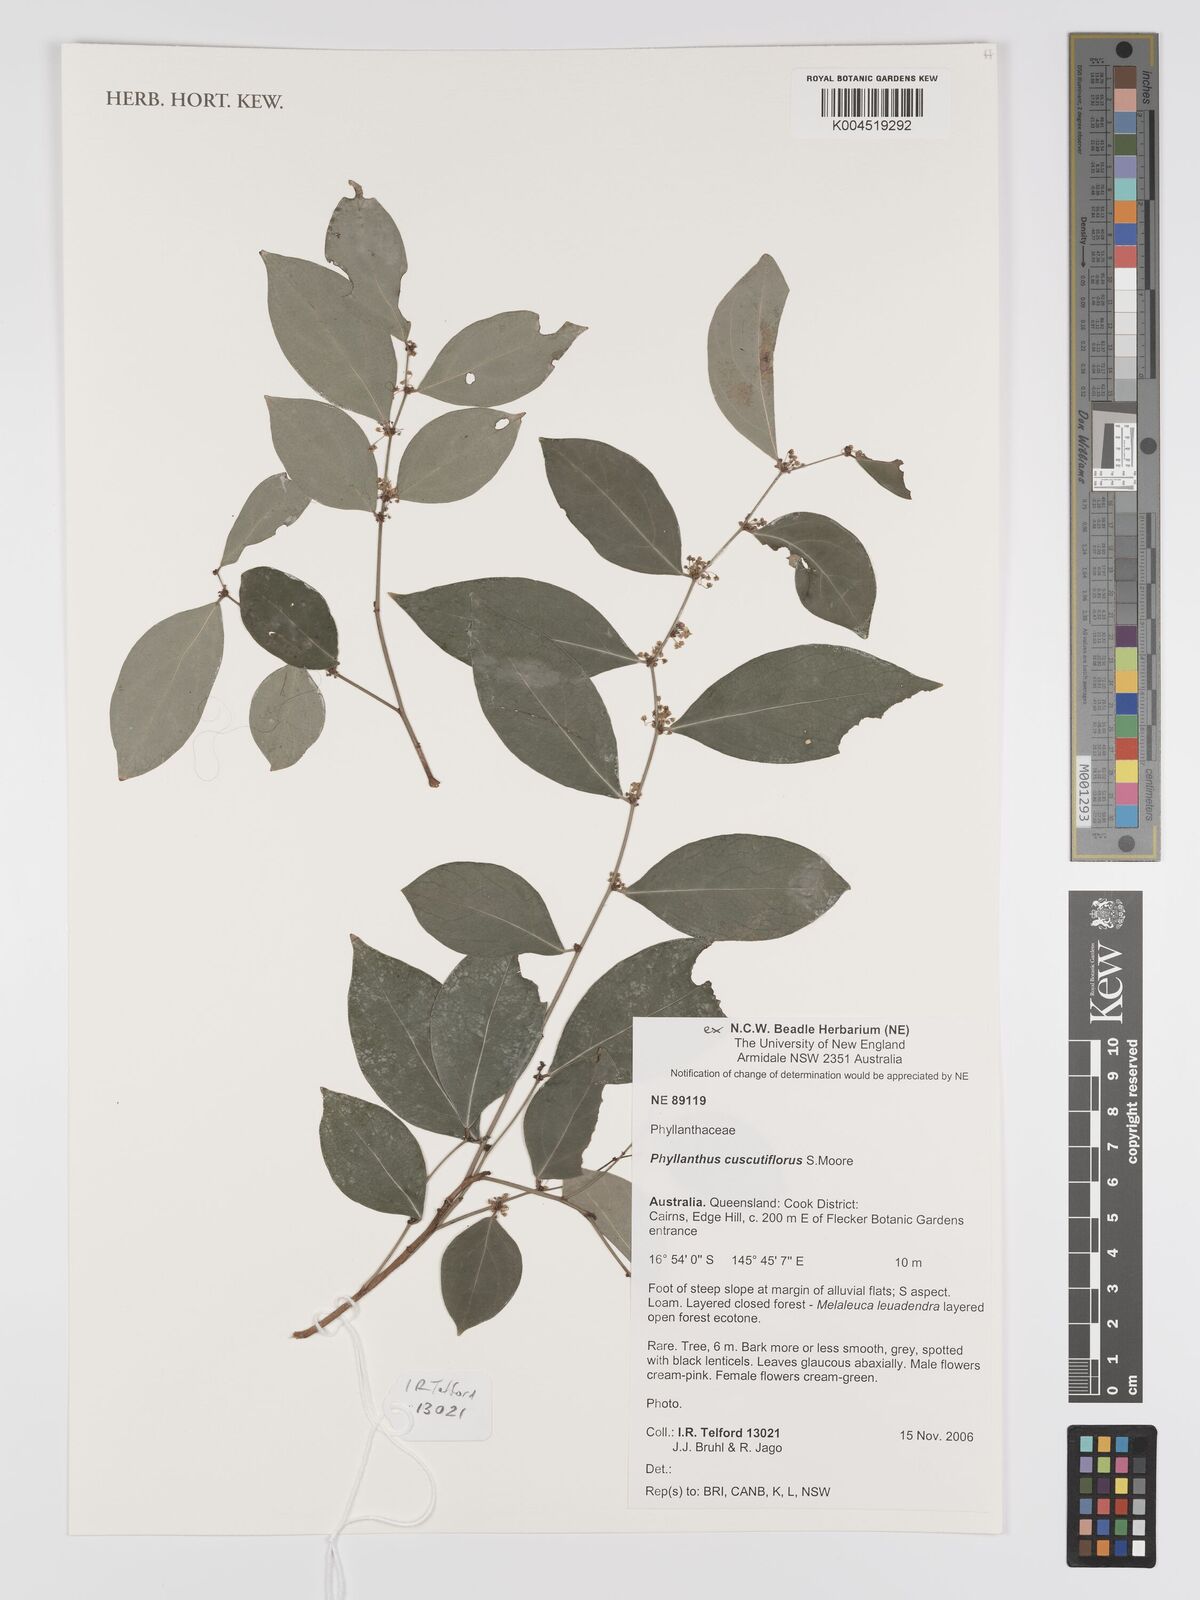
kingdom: Plantae
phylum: Tracheophyta
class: Magnoliopsida
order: Malpighiales
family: Phyllanthaceae
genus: Phyllanthus
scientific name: Phyllanthus cuscutiflorus
